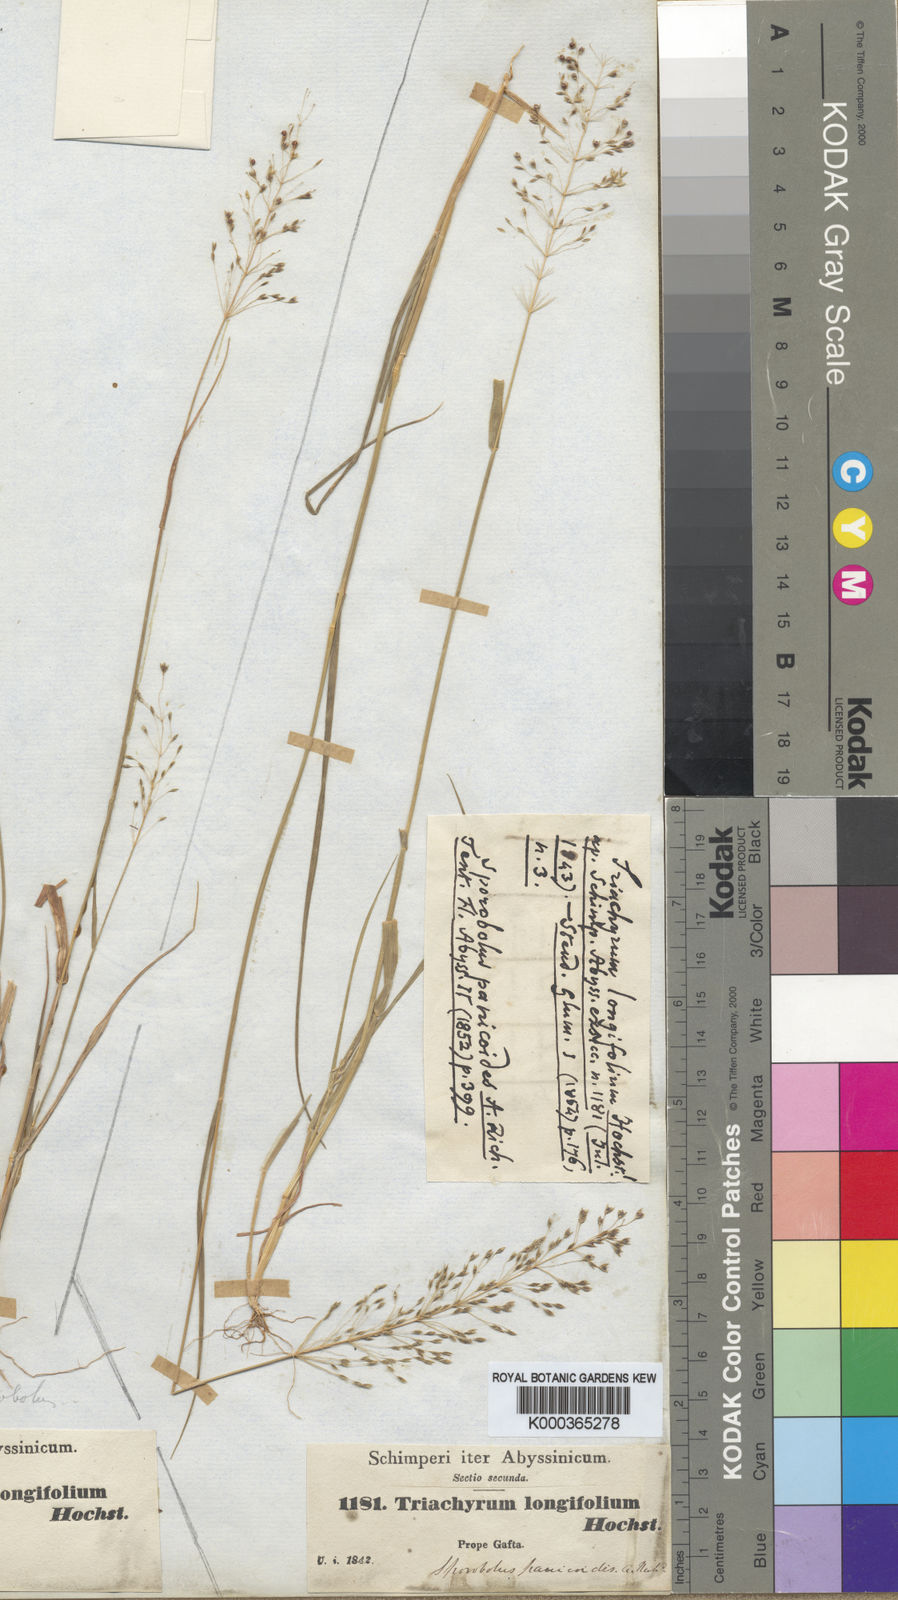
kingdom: Plantae
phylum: Tracheophyta
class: Liliopsida
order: Poales
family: Poaceae
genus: Sporobolus
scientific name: Sporobolus panicoides
